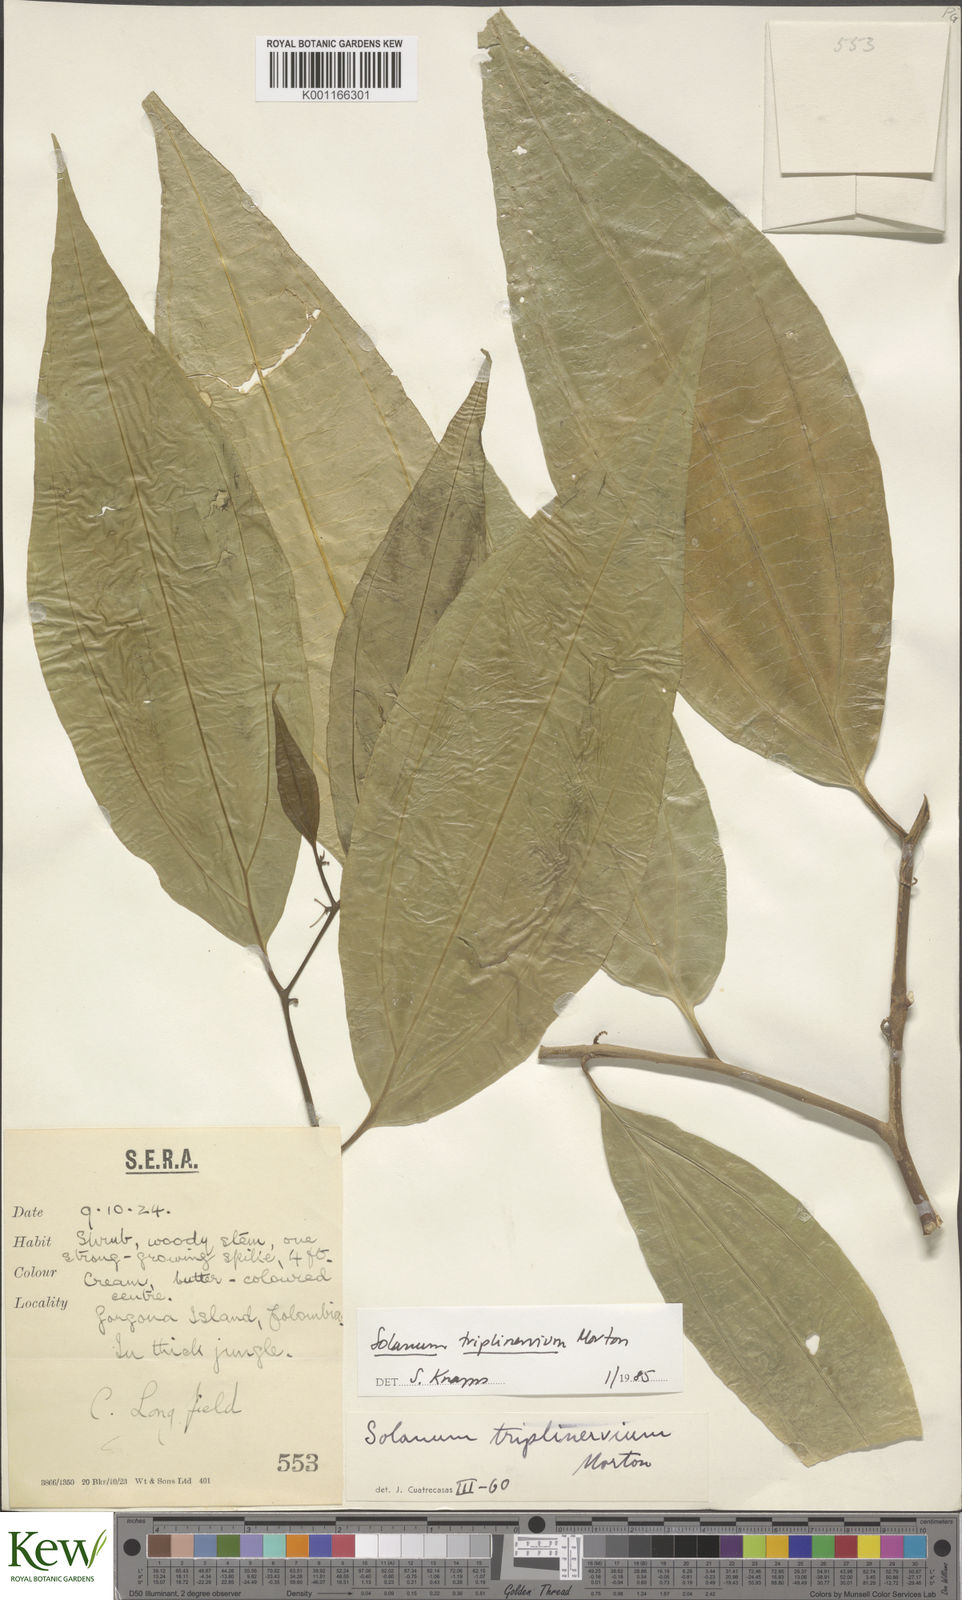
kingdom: Plantae
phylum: Tracheophyta
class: Magnoliopsida
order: Solanales
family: Solanaceae
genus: Solanum
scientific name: Solanum triplinervium
